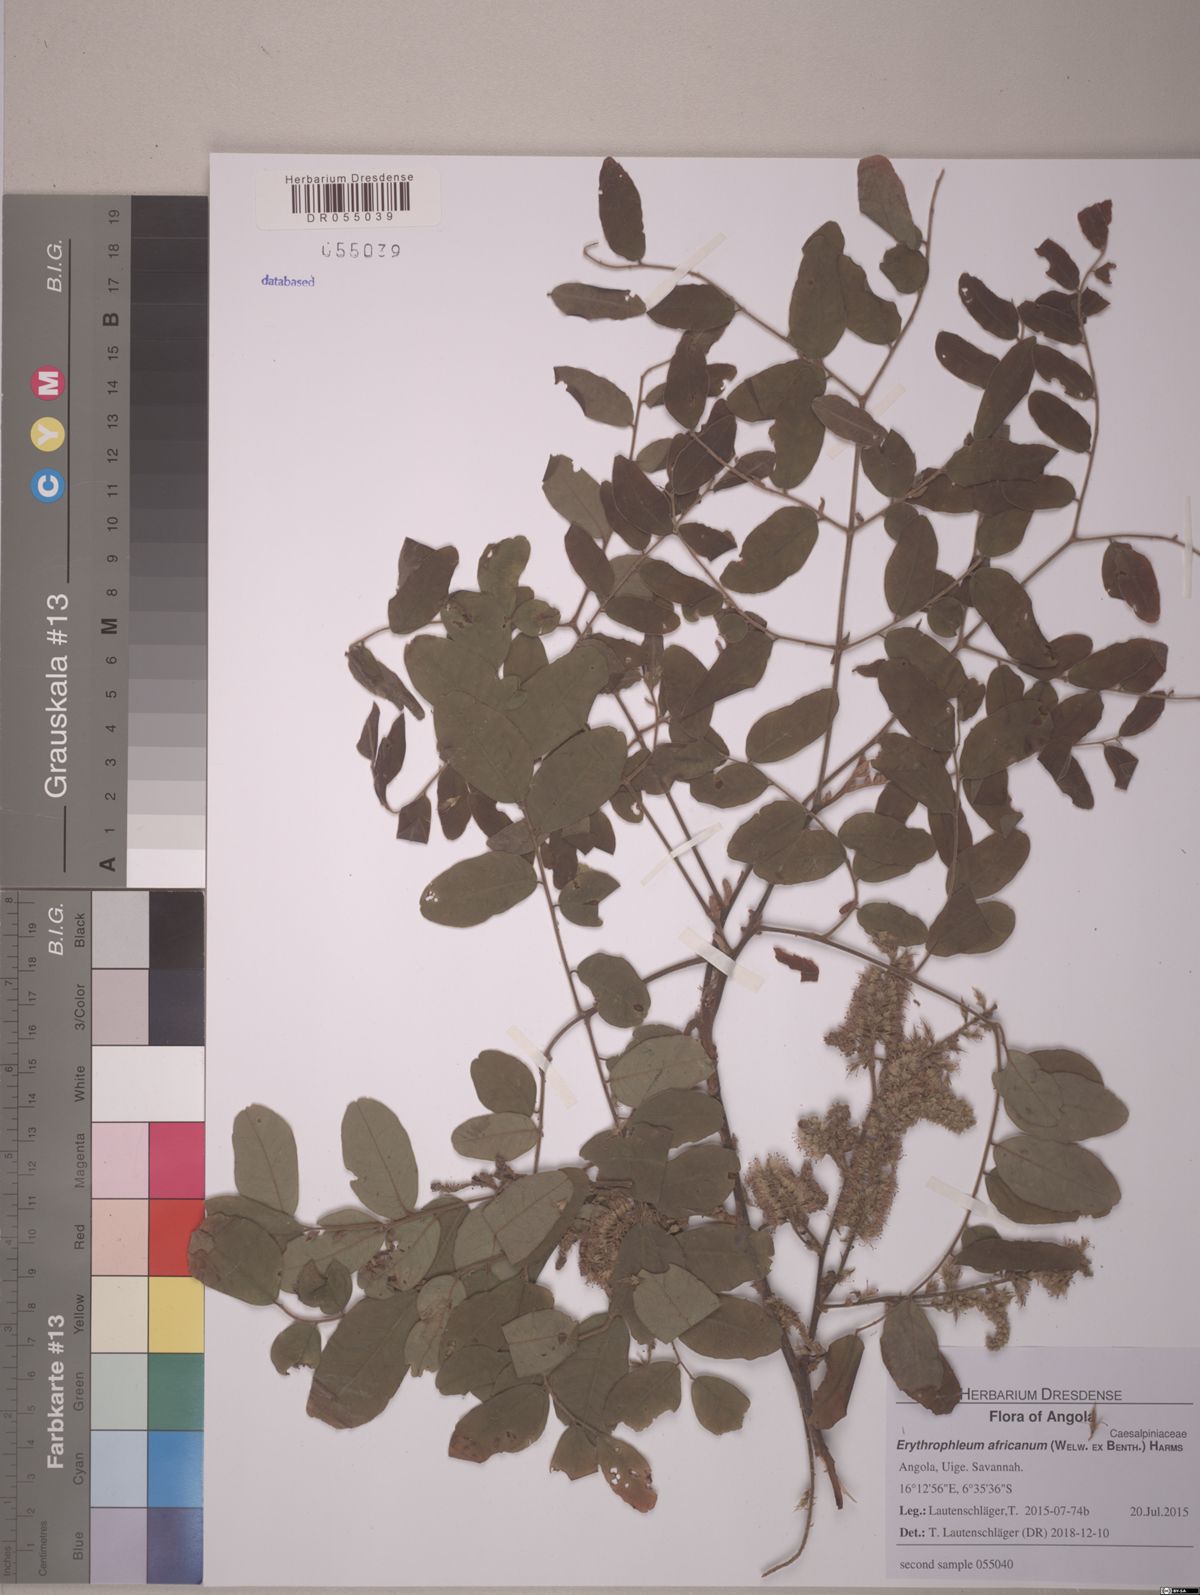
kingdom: Plantae
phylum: Tracheophyta
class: Magnoliopsida
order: Fabales
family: Fabaceae
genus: Erythrophleum
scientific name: Erythrophleum africanum
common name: African blackwood
